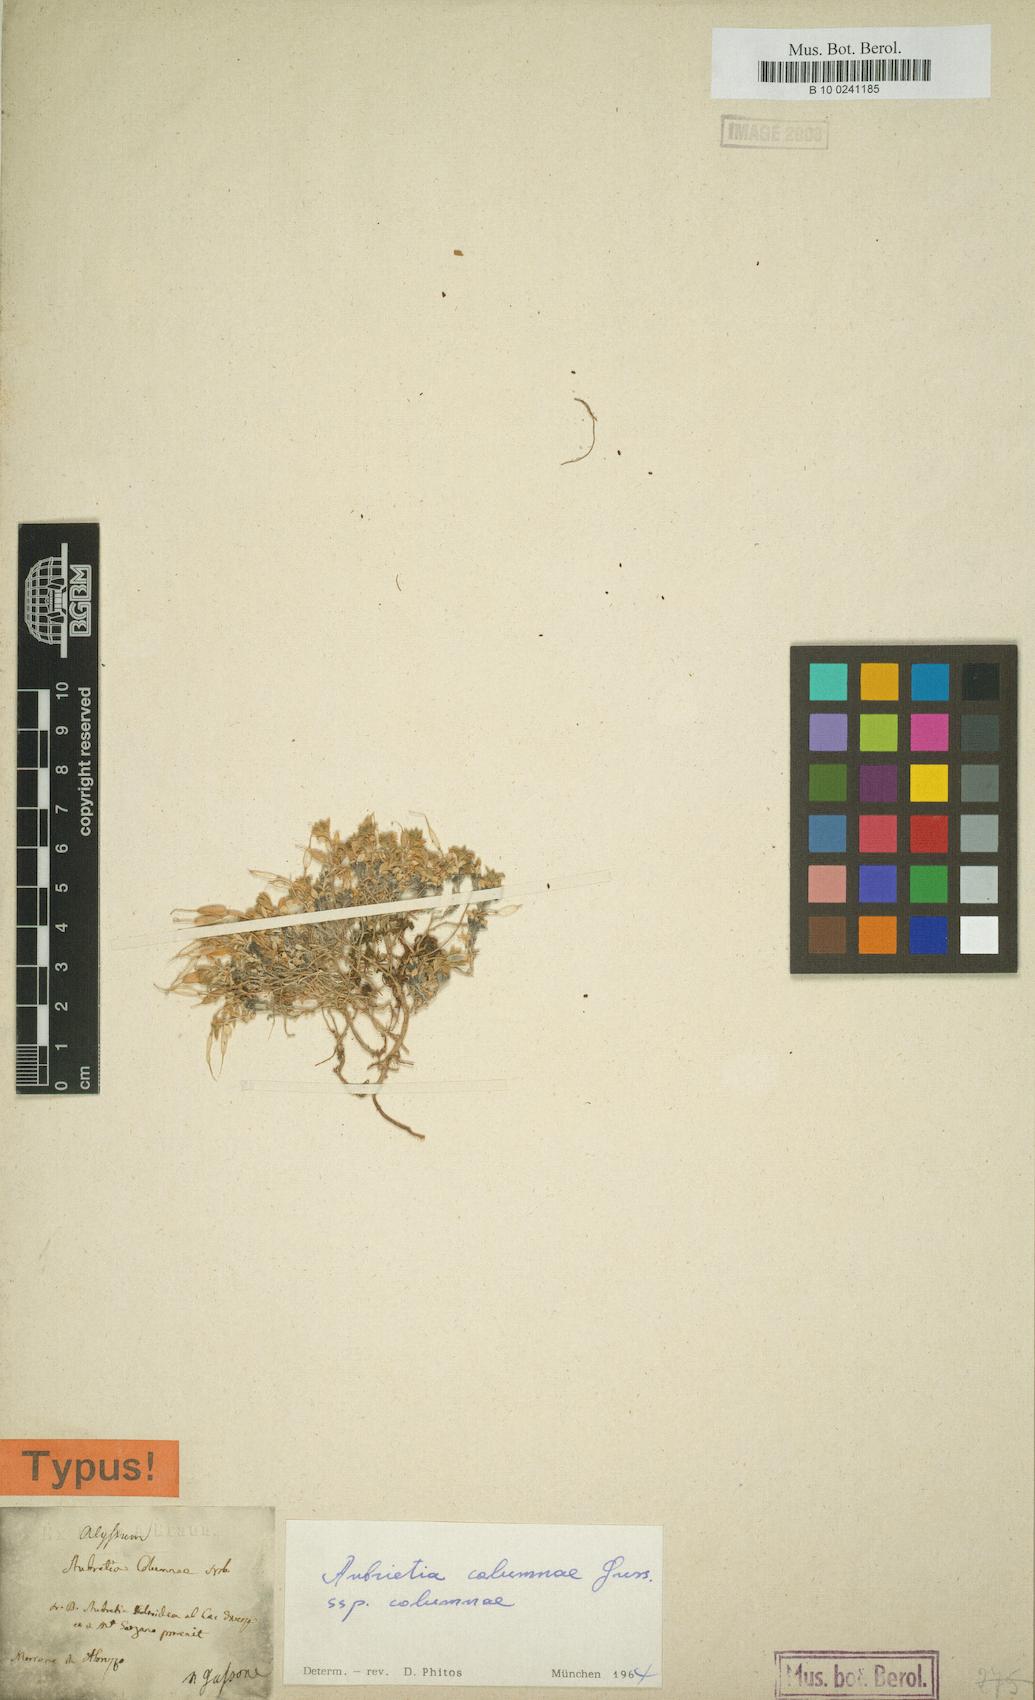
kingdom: Plantae
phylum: Tracheophyta
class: Magnoliopsida
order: Brassicales
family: Brassicaceae
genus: Aubrieta
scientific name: Aubrieta columnae
